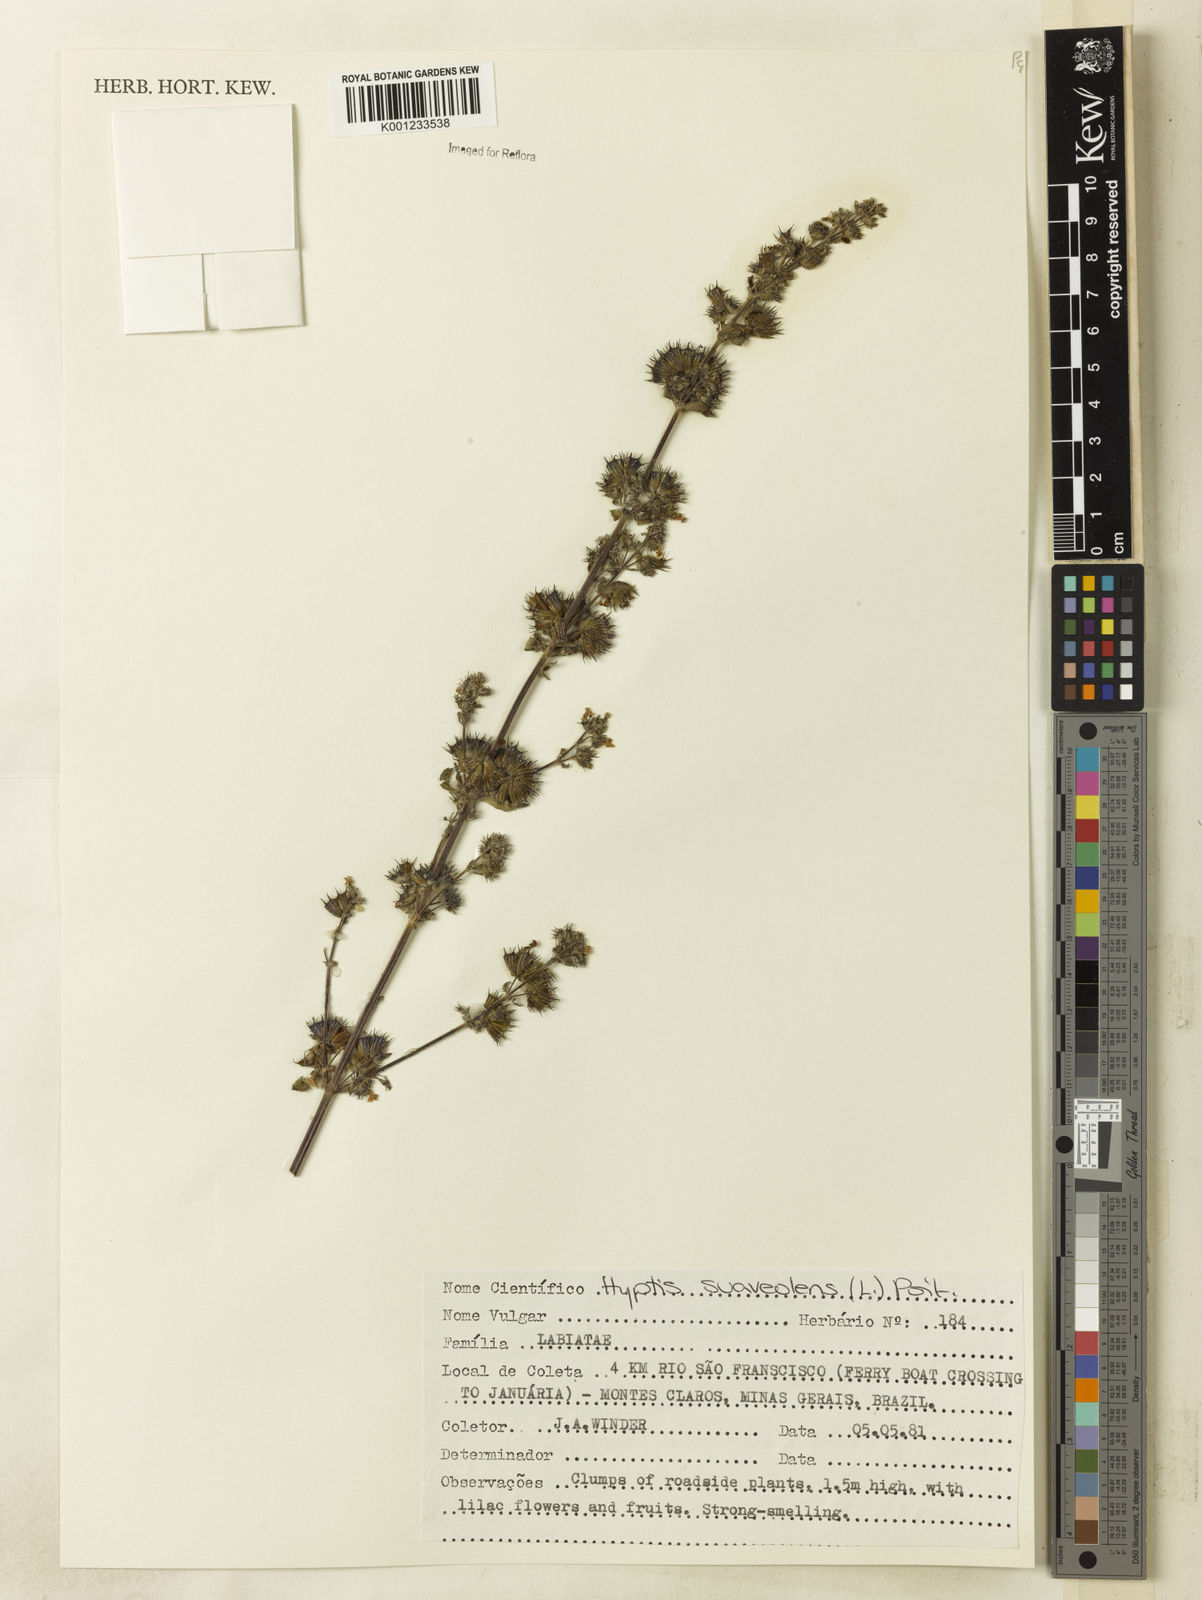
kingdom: Plantae
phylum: Tracheophyta
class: Magnoliopsida
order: Lamiales
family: Lamiaceae
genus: Mesosphaerum
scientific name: Mesosphaerum suaveolens
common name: Pignut
